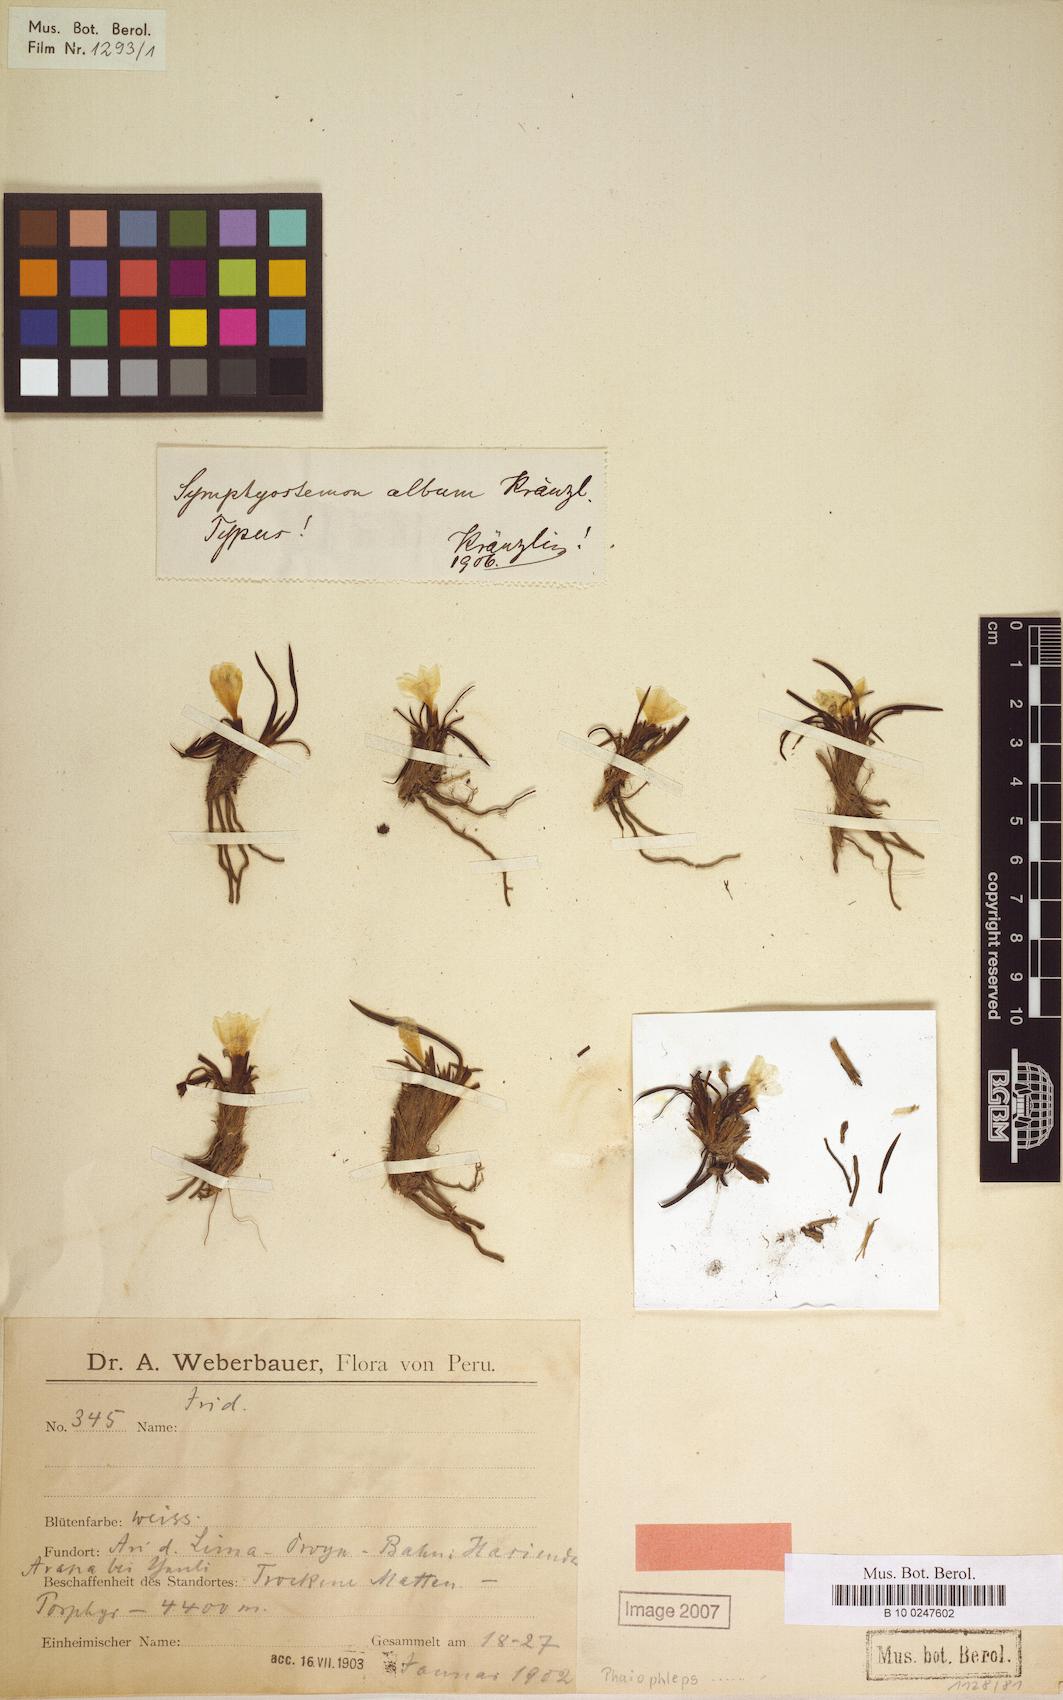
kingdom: Plantae
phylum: Tracheophyta
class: Liliopsida
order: Asparagales
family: Iridaceae
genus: Olsynium
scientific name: Olsynium acaule
